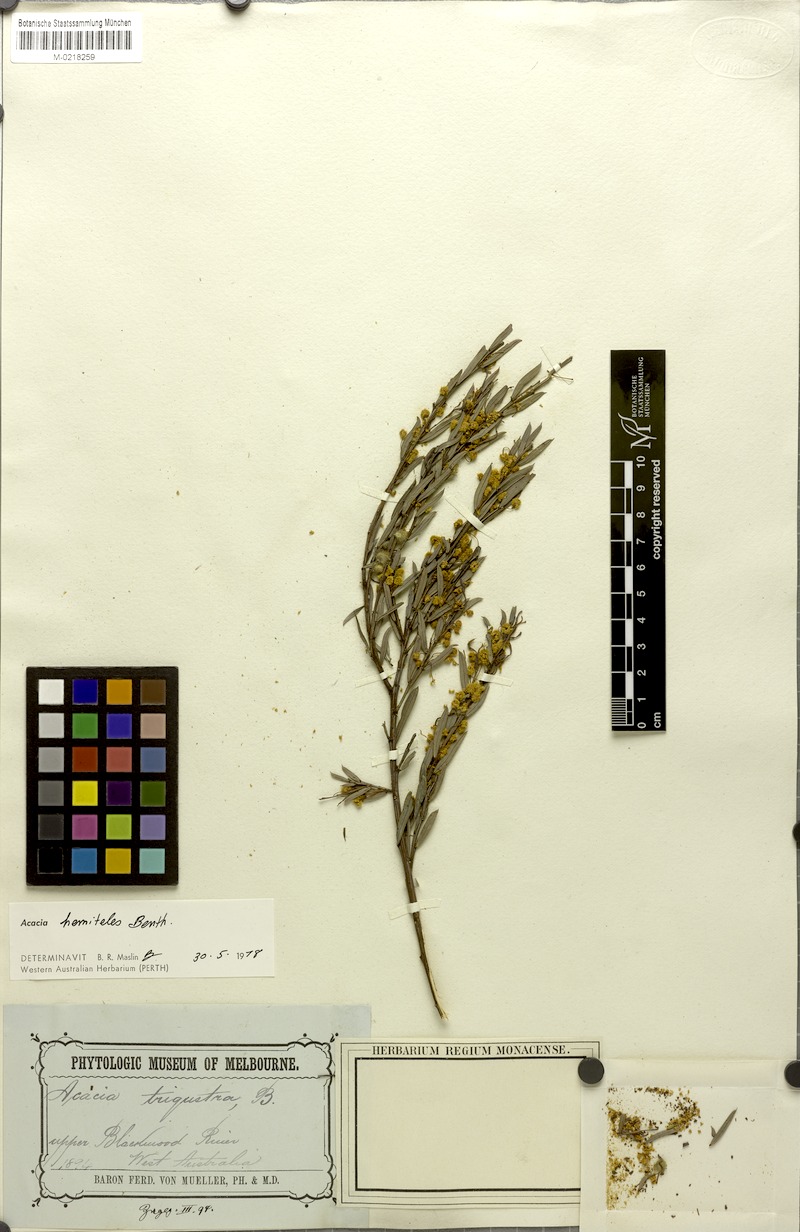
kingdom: Plantae
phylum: Tracheophyta
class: Magnoliopsida
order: Fabales
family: Fabaceae
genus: Acacia
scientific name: Acacia hemiteles
